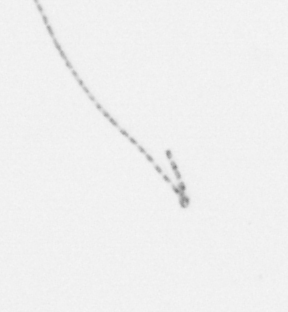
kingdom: Chromista
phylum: Ochrophyta
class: Bacillariophyceae
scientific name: Bacillariophyceae
